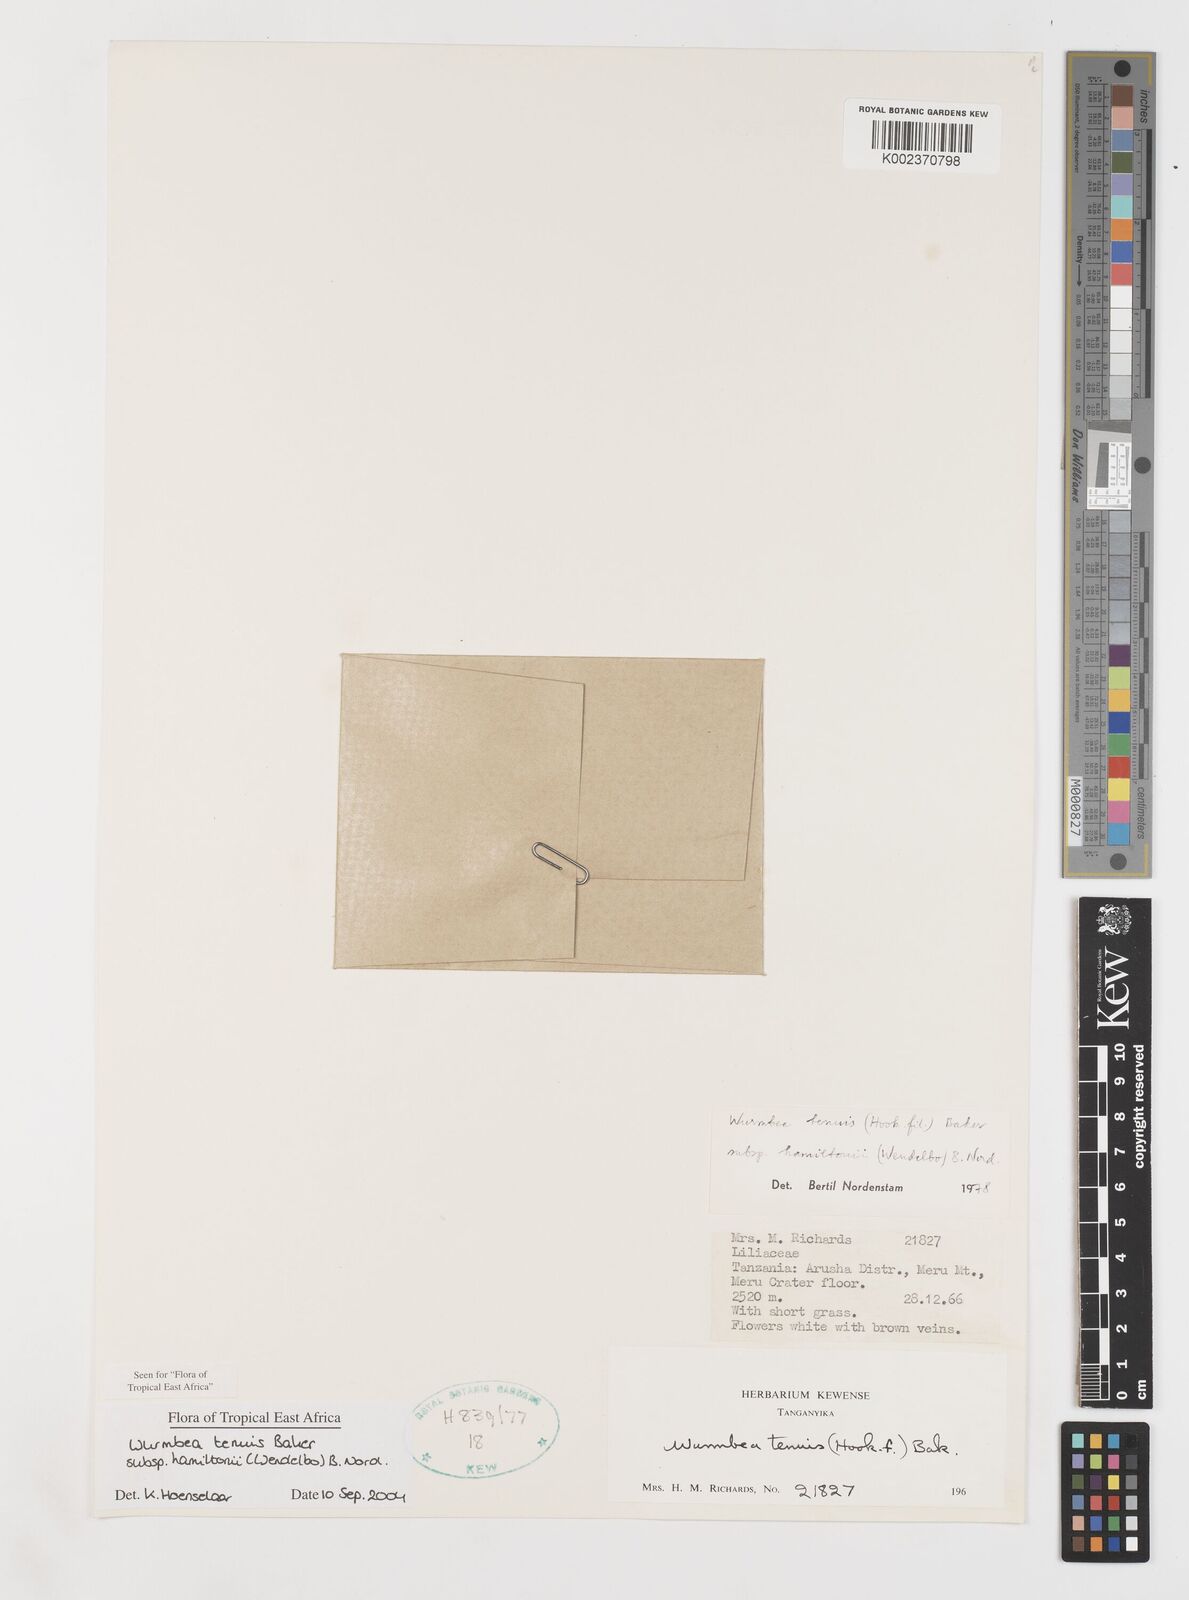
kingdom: Plantae
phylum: Tracheophyta
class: Liliopsida
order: Liliales
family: Colchicaceae
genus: Wurmbea
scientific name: Wurmbea tenuis
